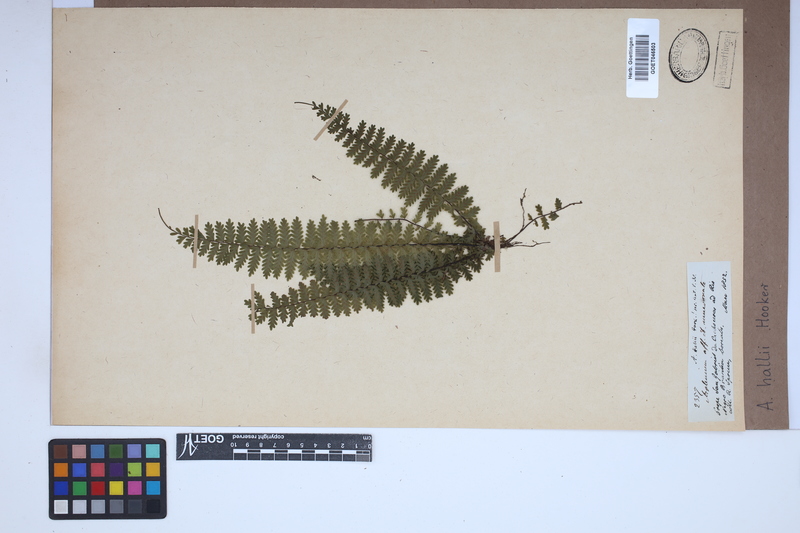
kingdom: Plantae
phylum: Tracheophyta
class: Polypodiopsida
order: Polypodiales
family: Aspleniaceae
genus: Asplenium
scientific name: Asplenium hallii
